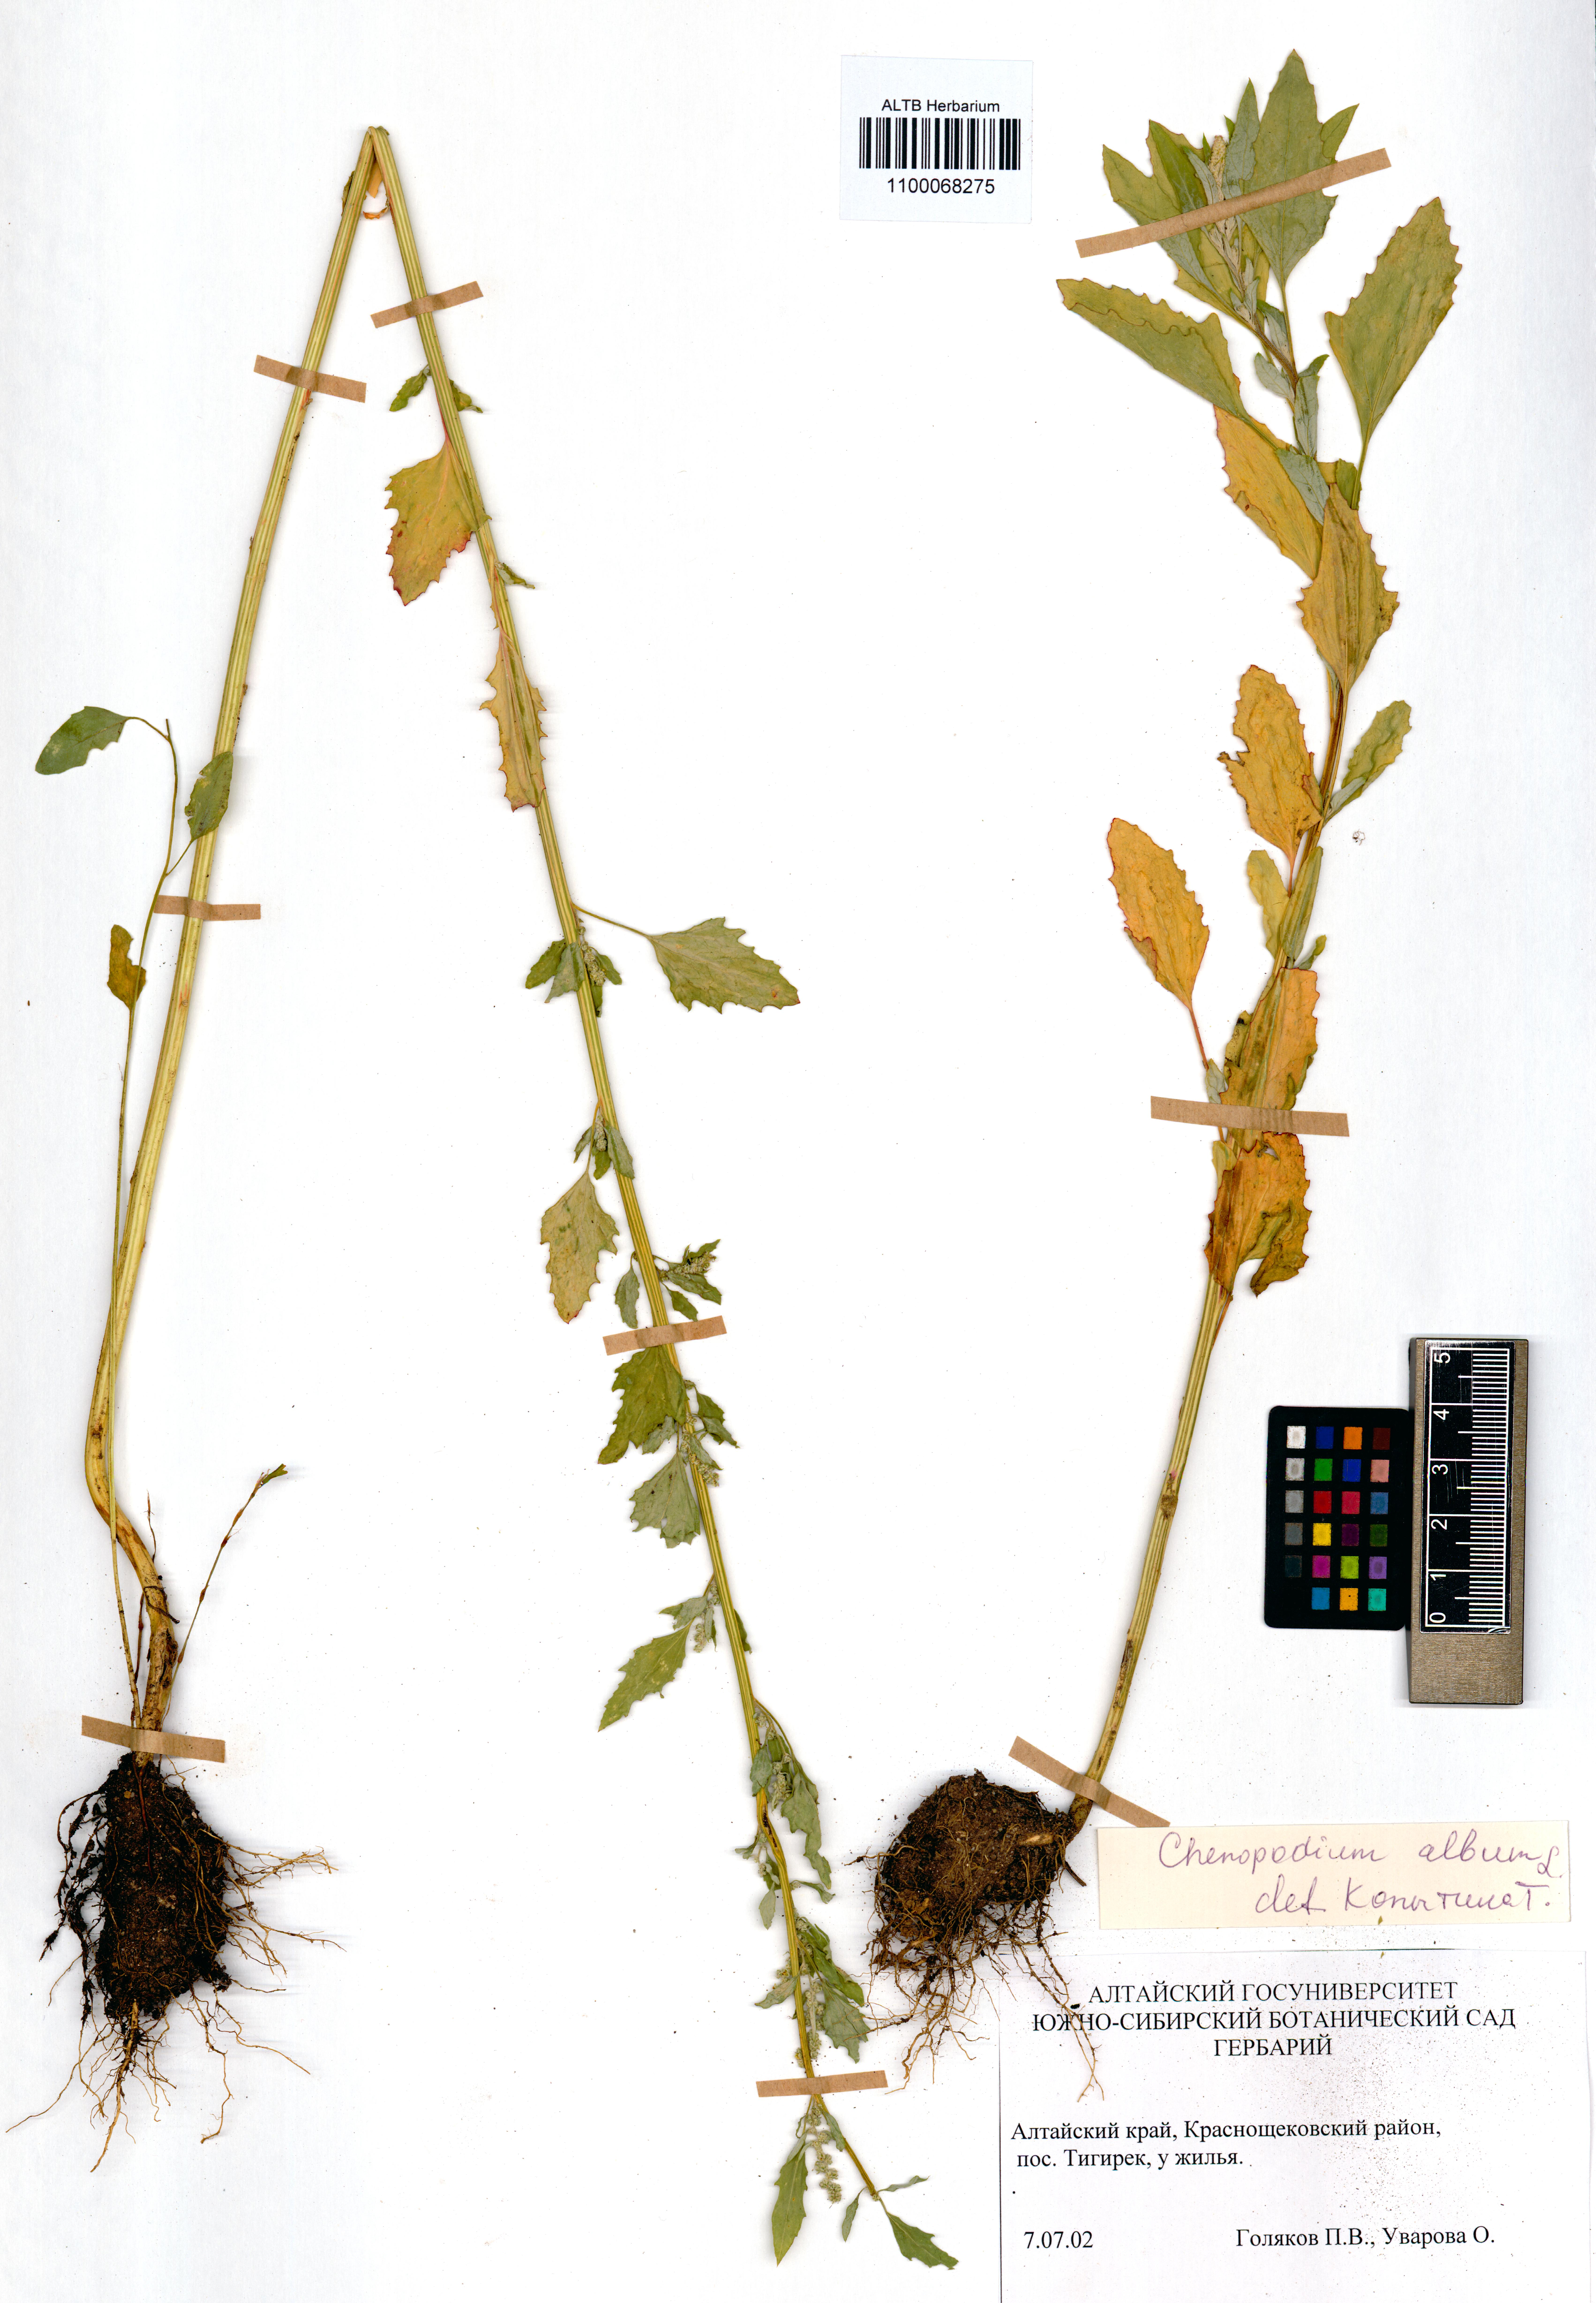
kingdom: Plantae
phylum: Tracheophyta
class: Magnoliopsida
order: Caryophyllales
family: Amaranthaceae
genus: Chenopodium
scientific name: Chenopodium album
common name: Fat-hen
